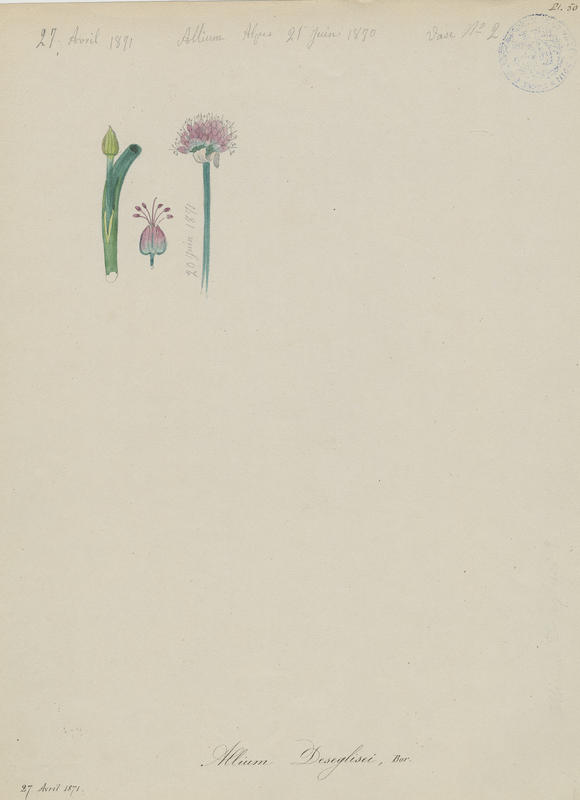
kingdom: Plantae
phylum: Tracheophyta
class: Liliopsida
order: Asparagales
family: Amaryllidaceae
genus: Allium
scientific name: Allium sphaerocephalon
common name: Round-headed leek
